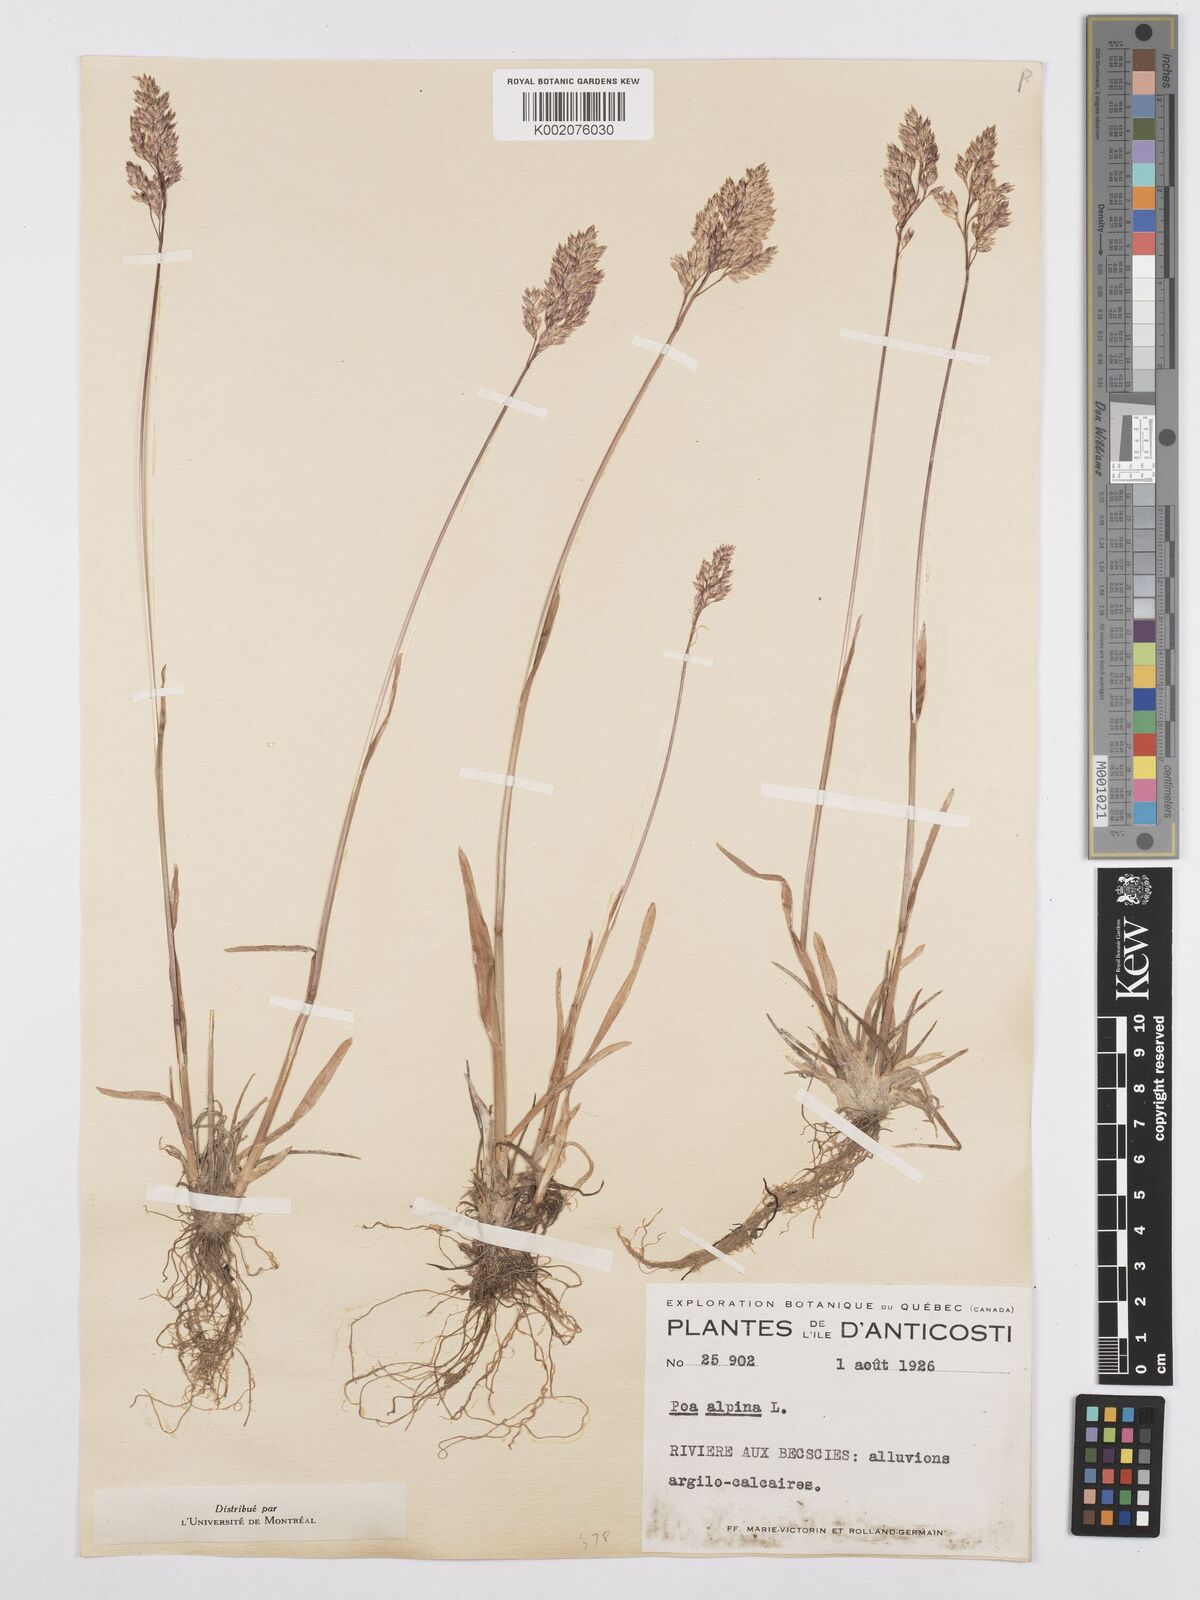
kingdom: Plantae
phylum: Tracheophyta
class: Liliopsida
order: Poales
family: Poaceae
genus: Poa
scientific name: Poa alpina
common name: Alpine bluegrass
